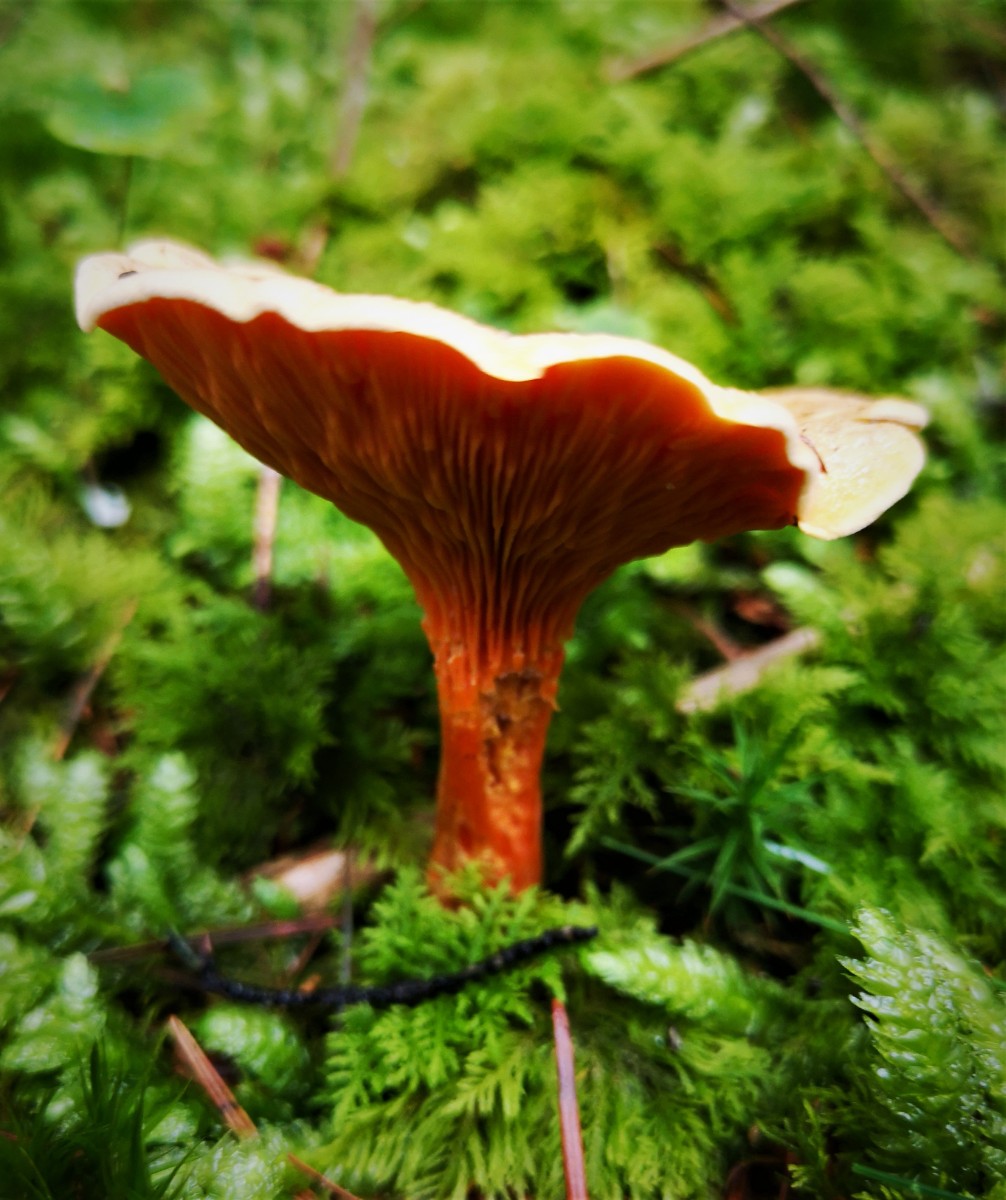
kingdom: Fungi
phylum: Basidiomycota
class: Agaricomycetes
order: Agaricales
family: Hygrophoraceae
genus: Aphroditeola
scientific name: Aphroditeola
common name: Orangekantarel
